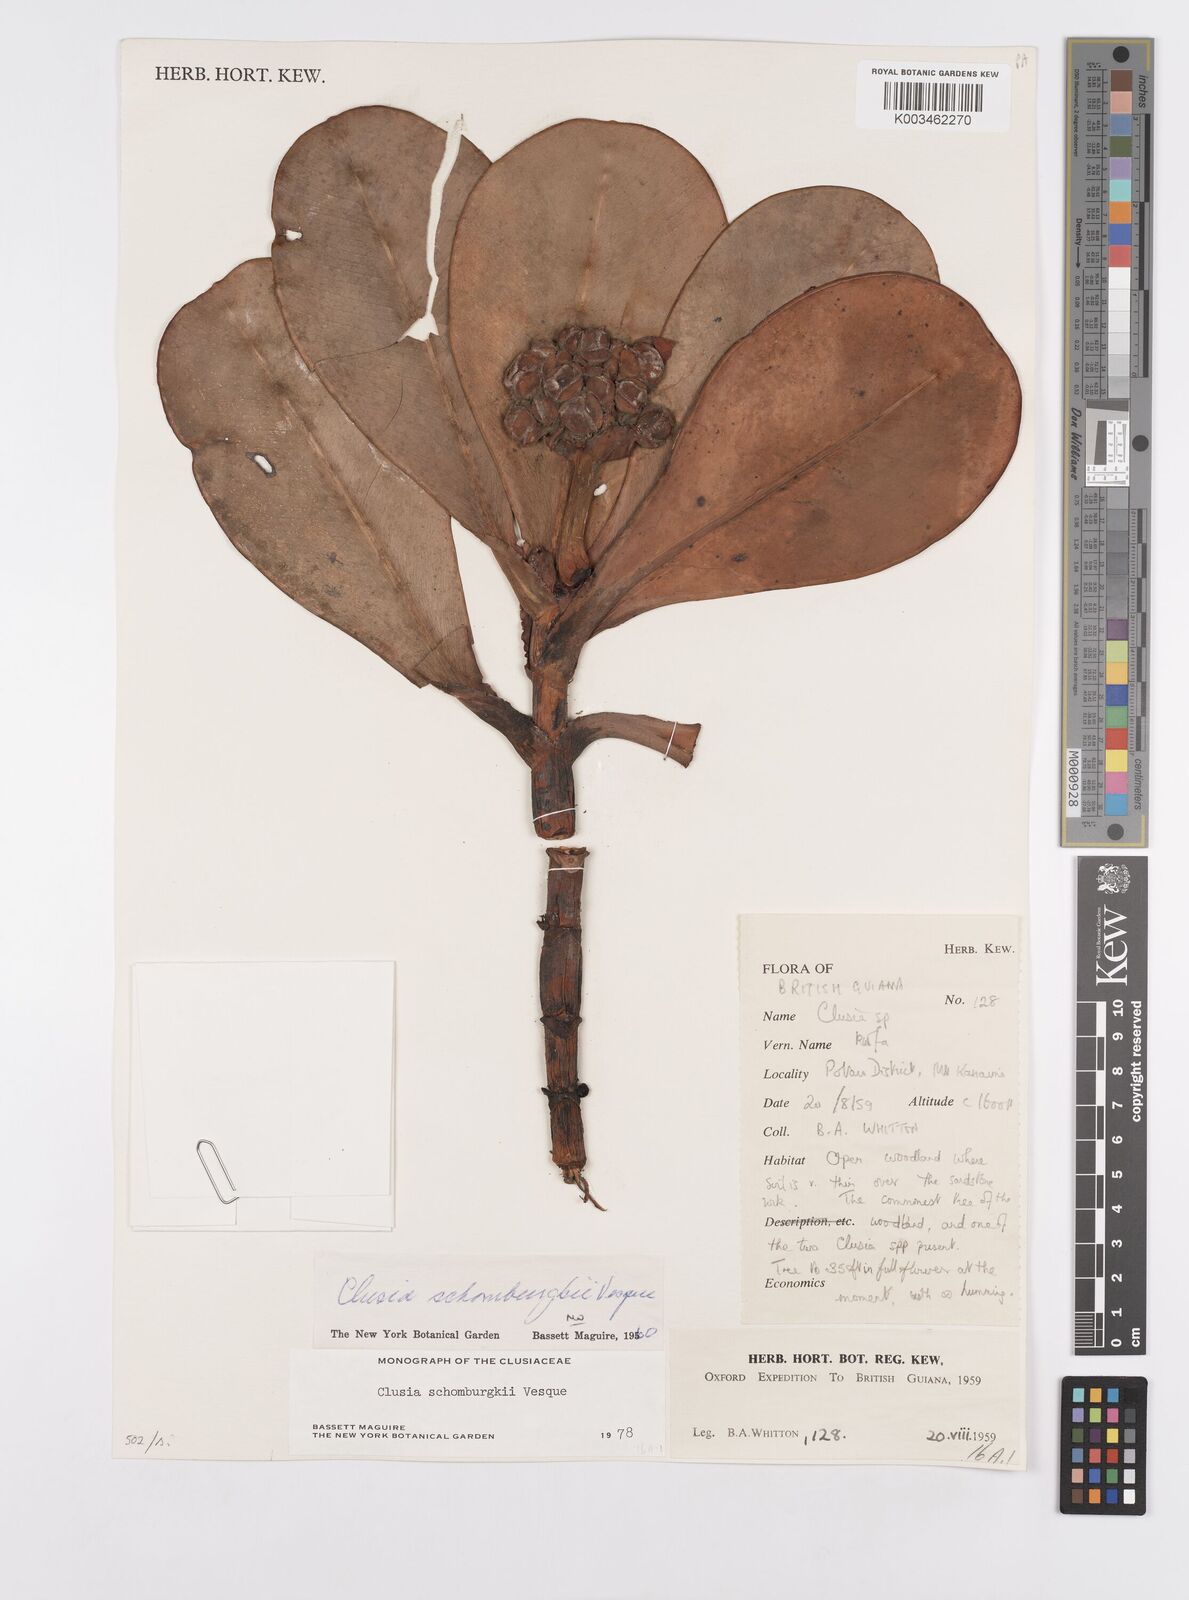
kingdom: Plantae
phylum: Tracheophyta
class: Magnoliopsida
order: Malpighiales
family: Clusiaceae
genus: Clusia
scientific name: Clusia schomburgkiana
